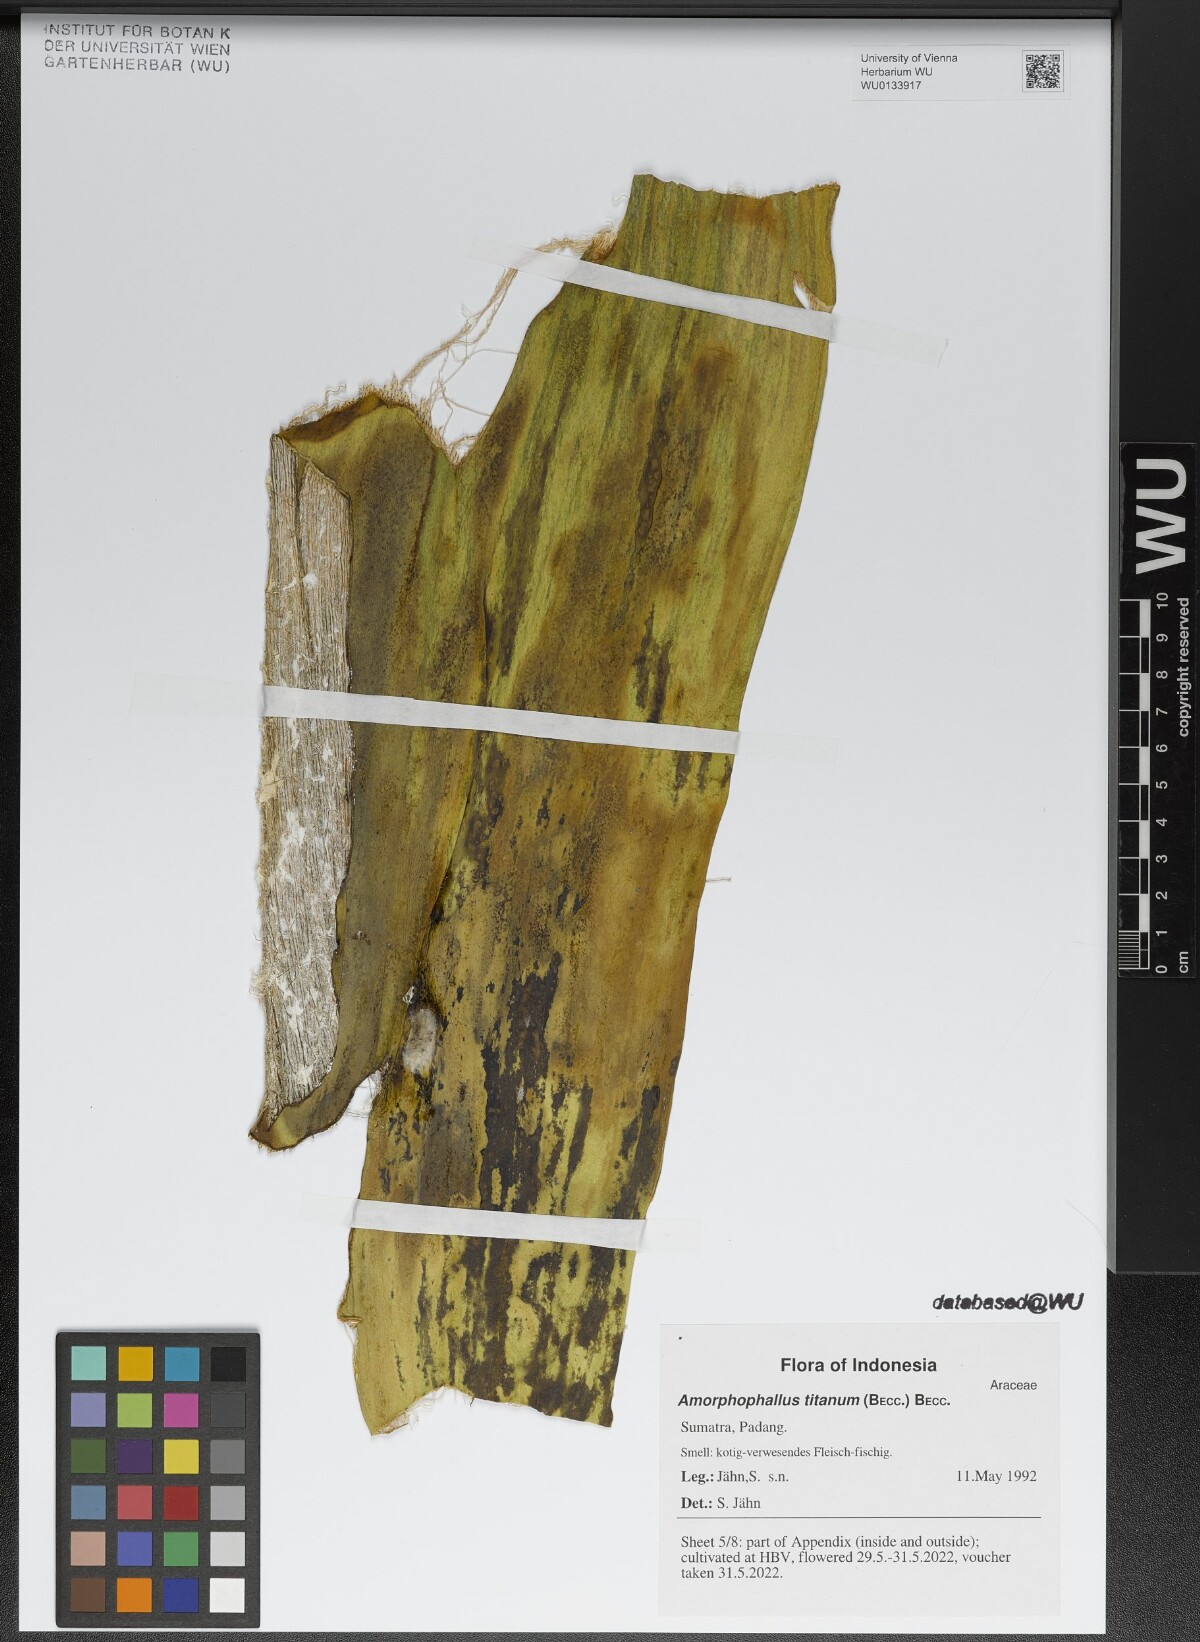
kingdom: Plantae
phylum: Tracheophyta
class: Liliopsida
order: Alismatales
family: Araceae
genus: Amorphophallus
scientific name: Amorphophallus titanum
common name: Titan arum
